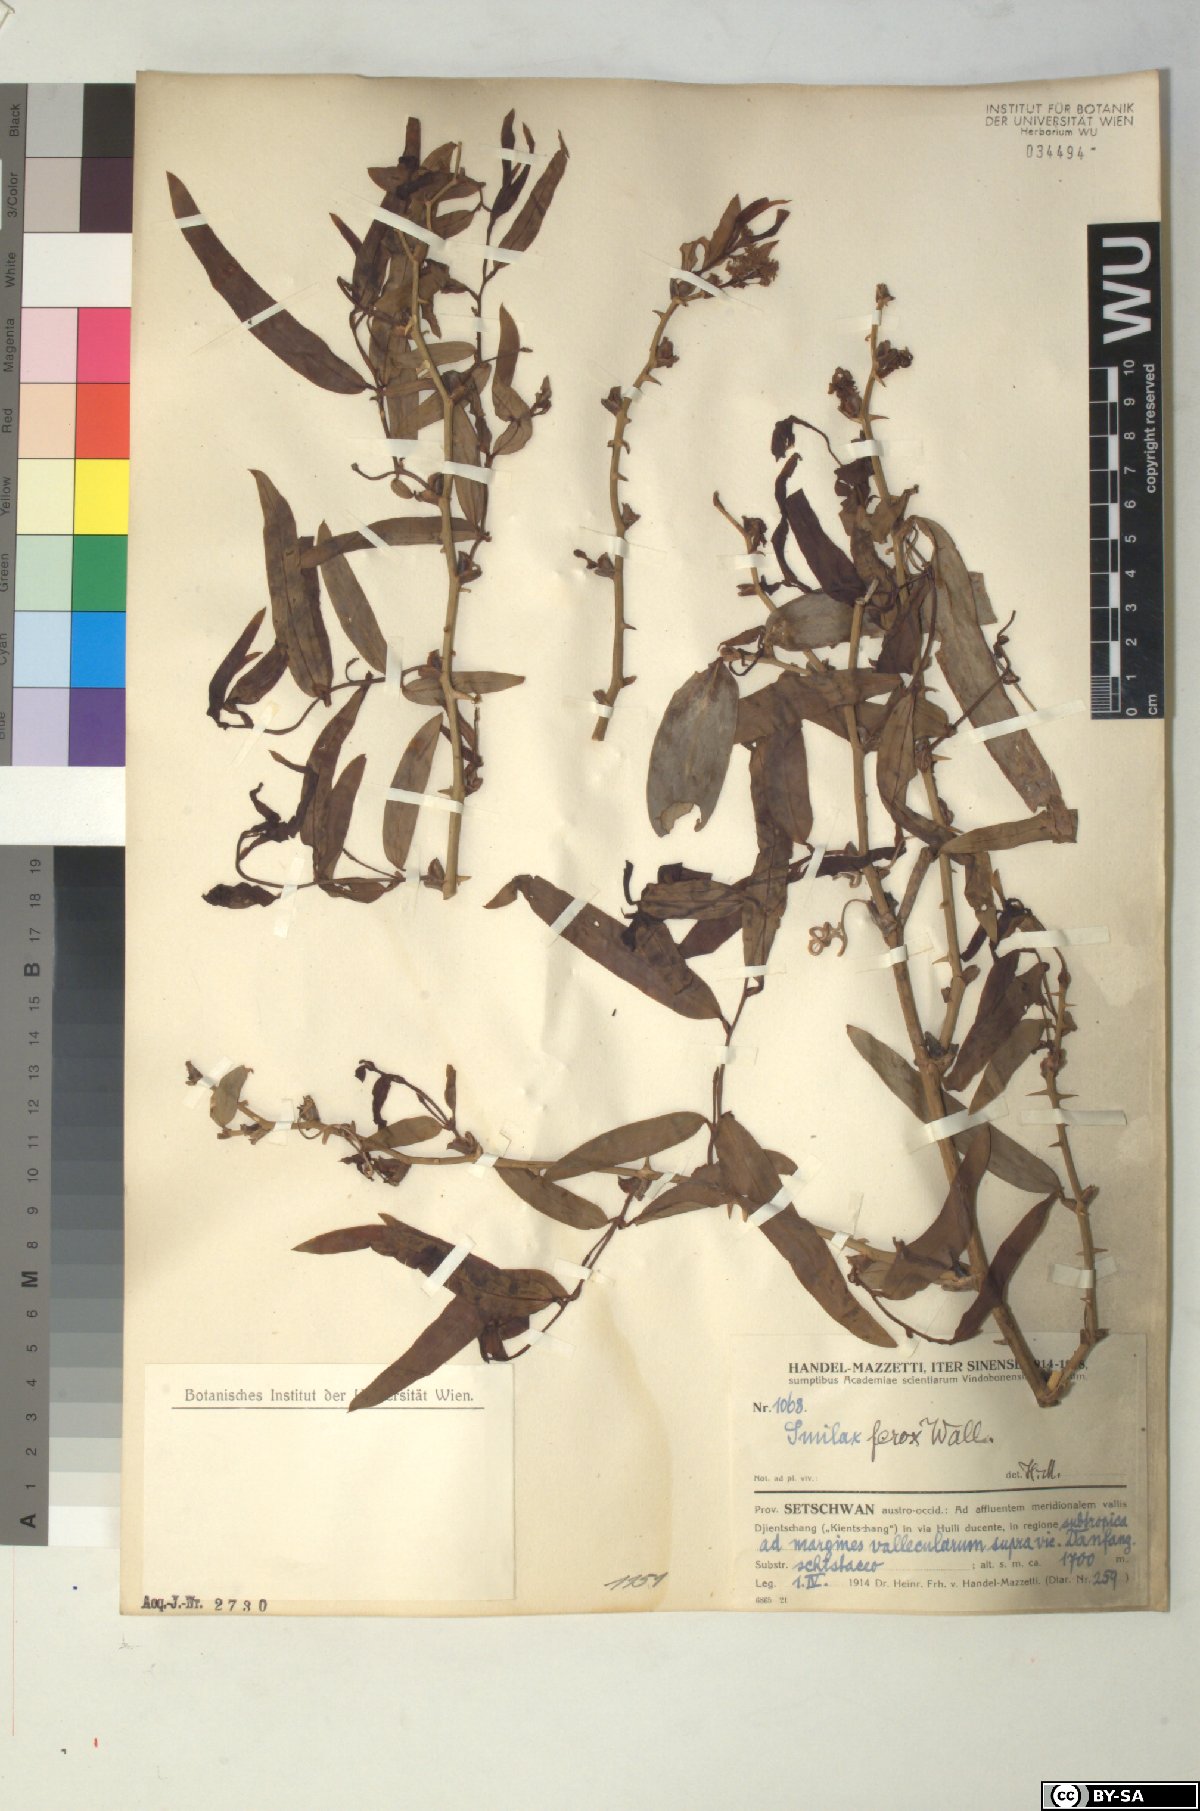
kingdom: Plantae
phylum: Tracheophyta
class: Liliopsida
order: Liliales
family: Smilacaceae
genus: Smilax
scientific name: Smilax ferox
